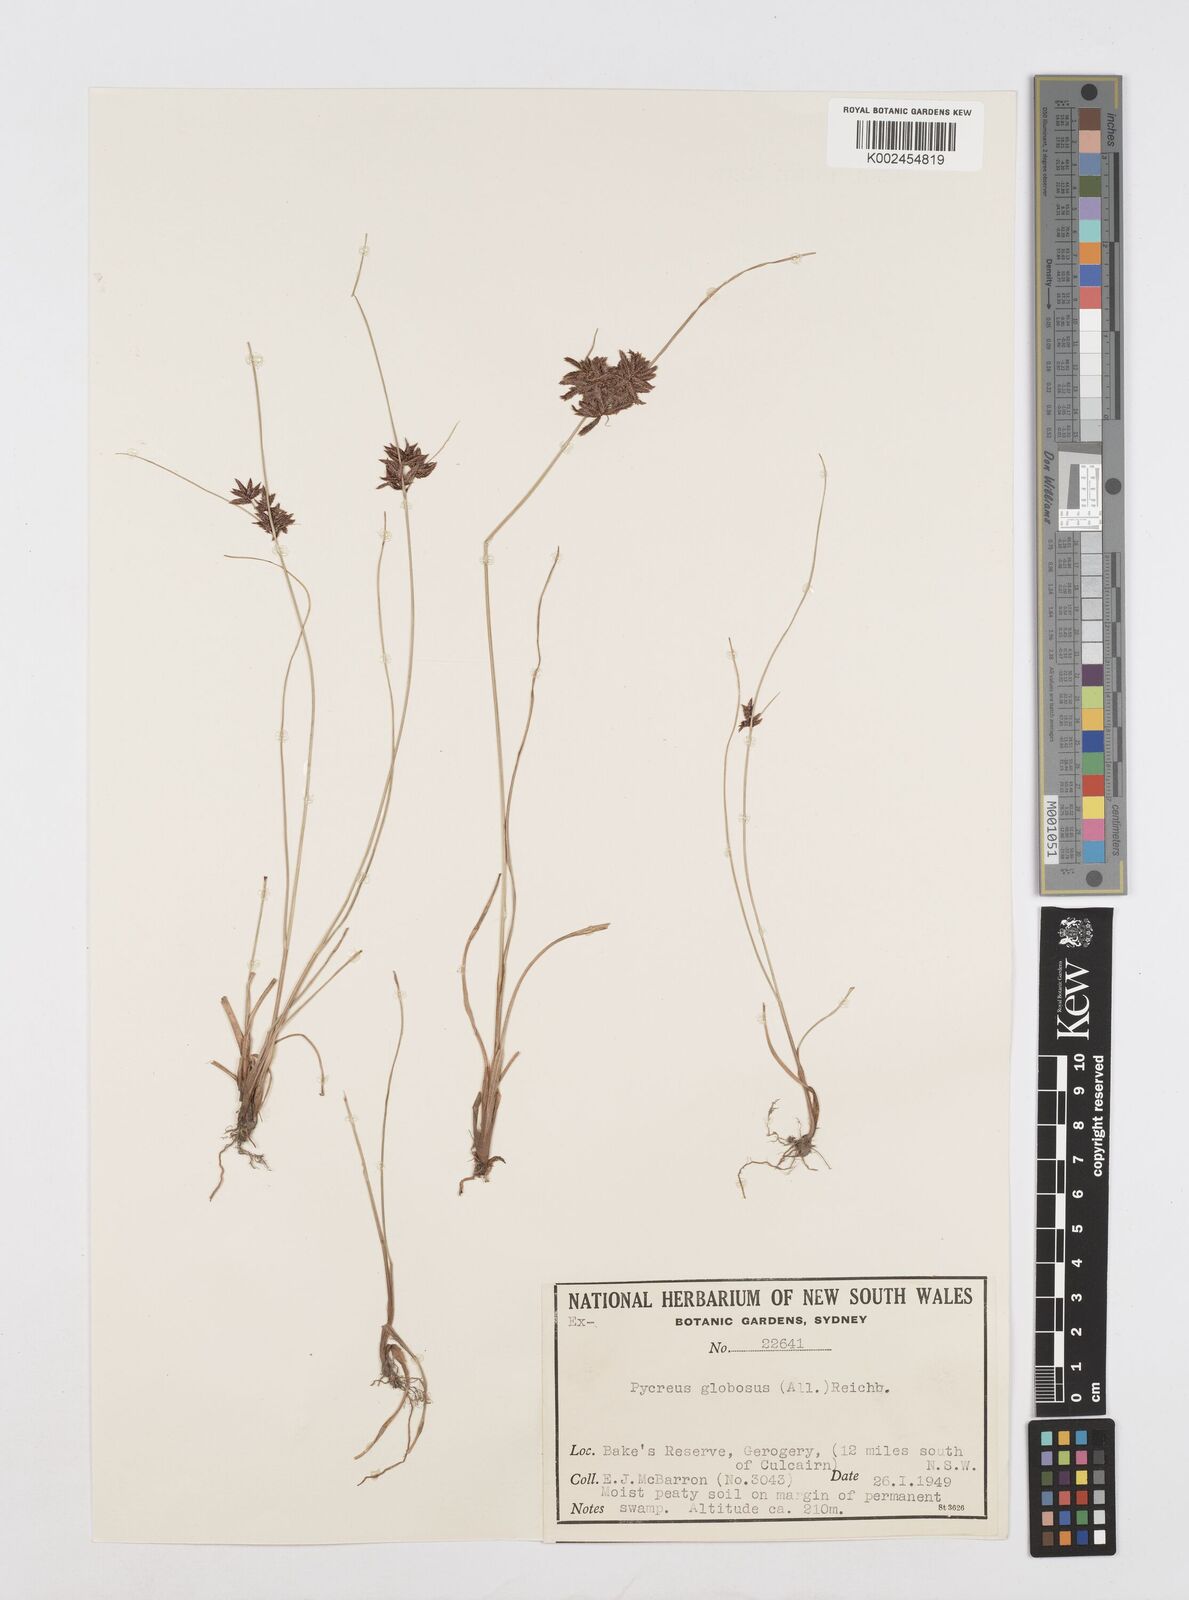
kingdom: Plantae
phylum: Tracheophyta
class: Liliopsida
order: Poales
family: Cyperaceae
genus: Cyperus
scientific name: Cyperus flavidus
